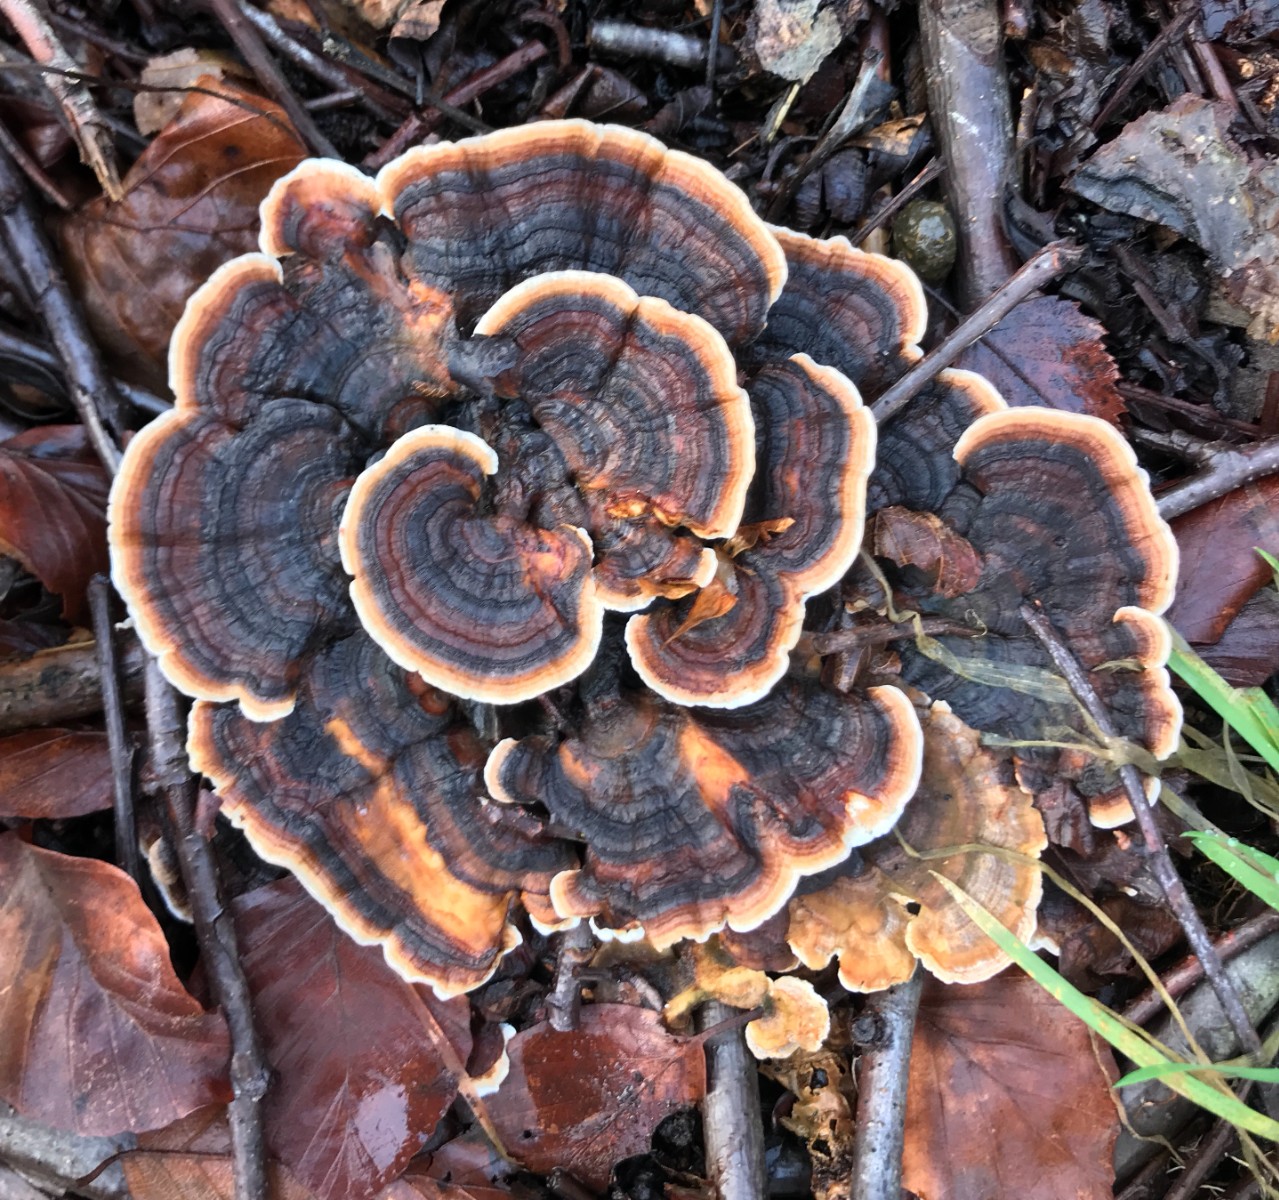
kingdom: Fungi
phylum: Basidiomycota
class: Agaricomycetes
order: Polyporales
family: Polyporaceae
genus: Trametes
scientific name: Trametes versicolor
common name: broget læderporesvamp
